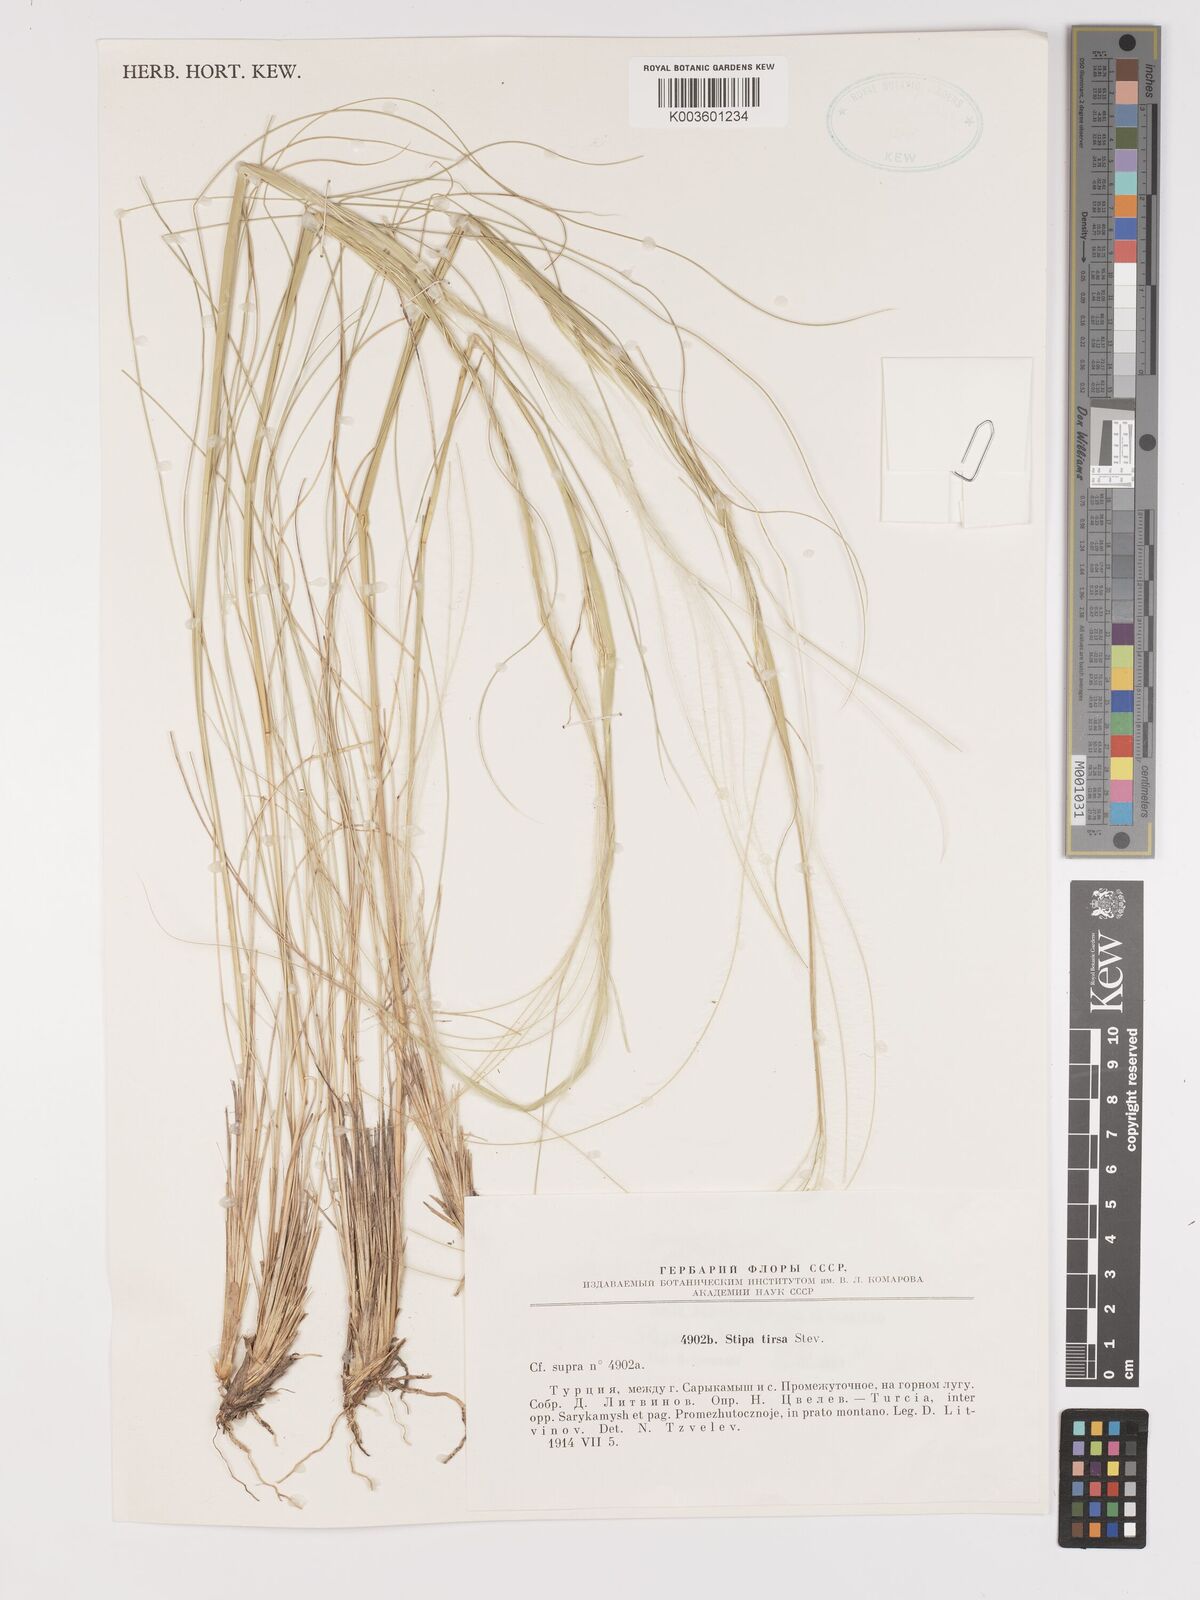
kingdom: Plantae
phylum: Tracheophyta
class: Liliopsida
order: Poales
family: Poaceae
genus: Stipa
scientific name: Stipa tirsa
